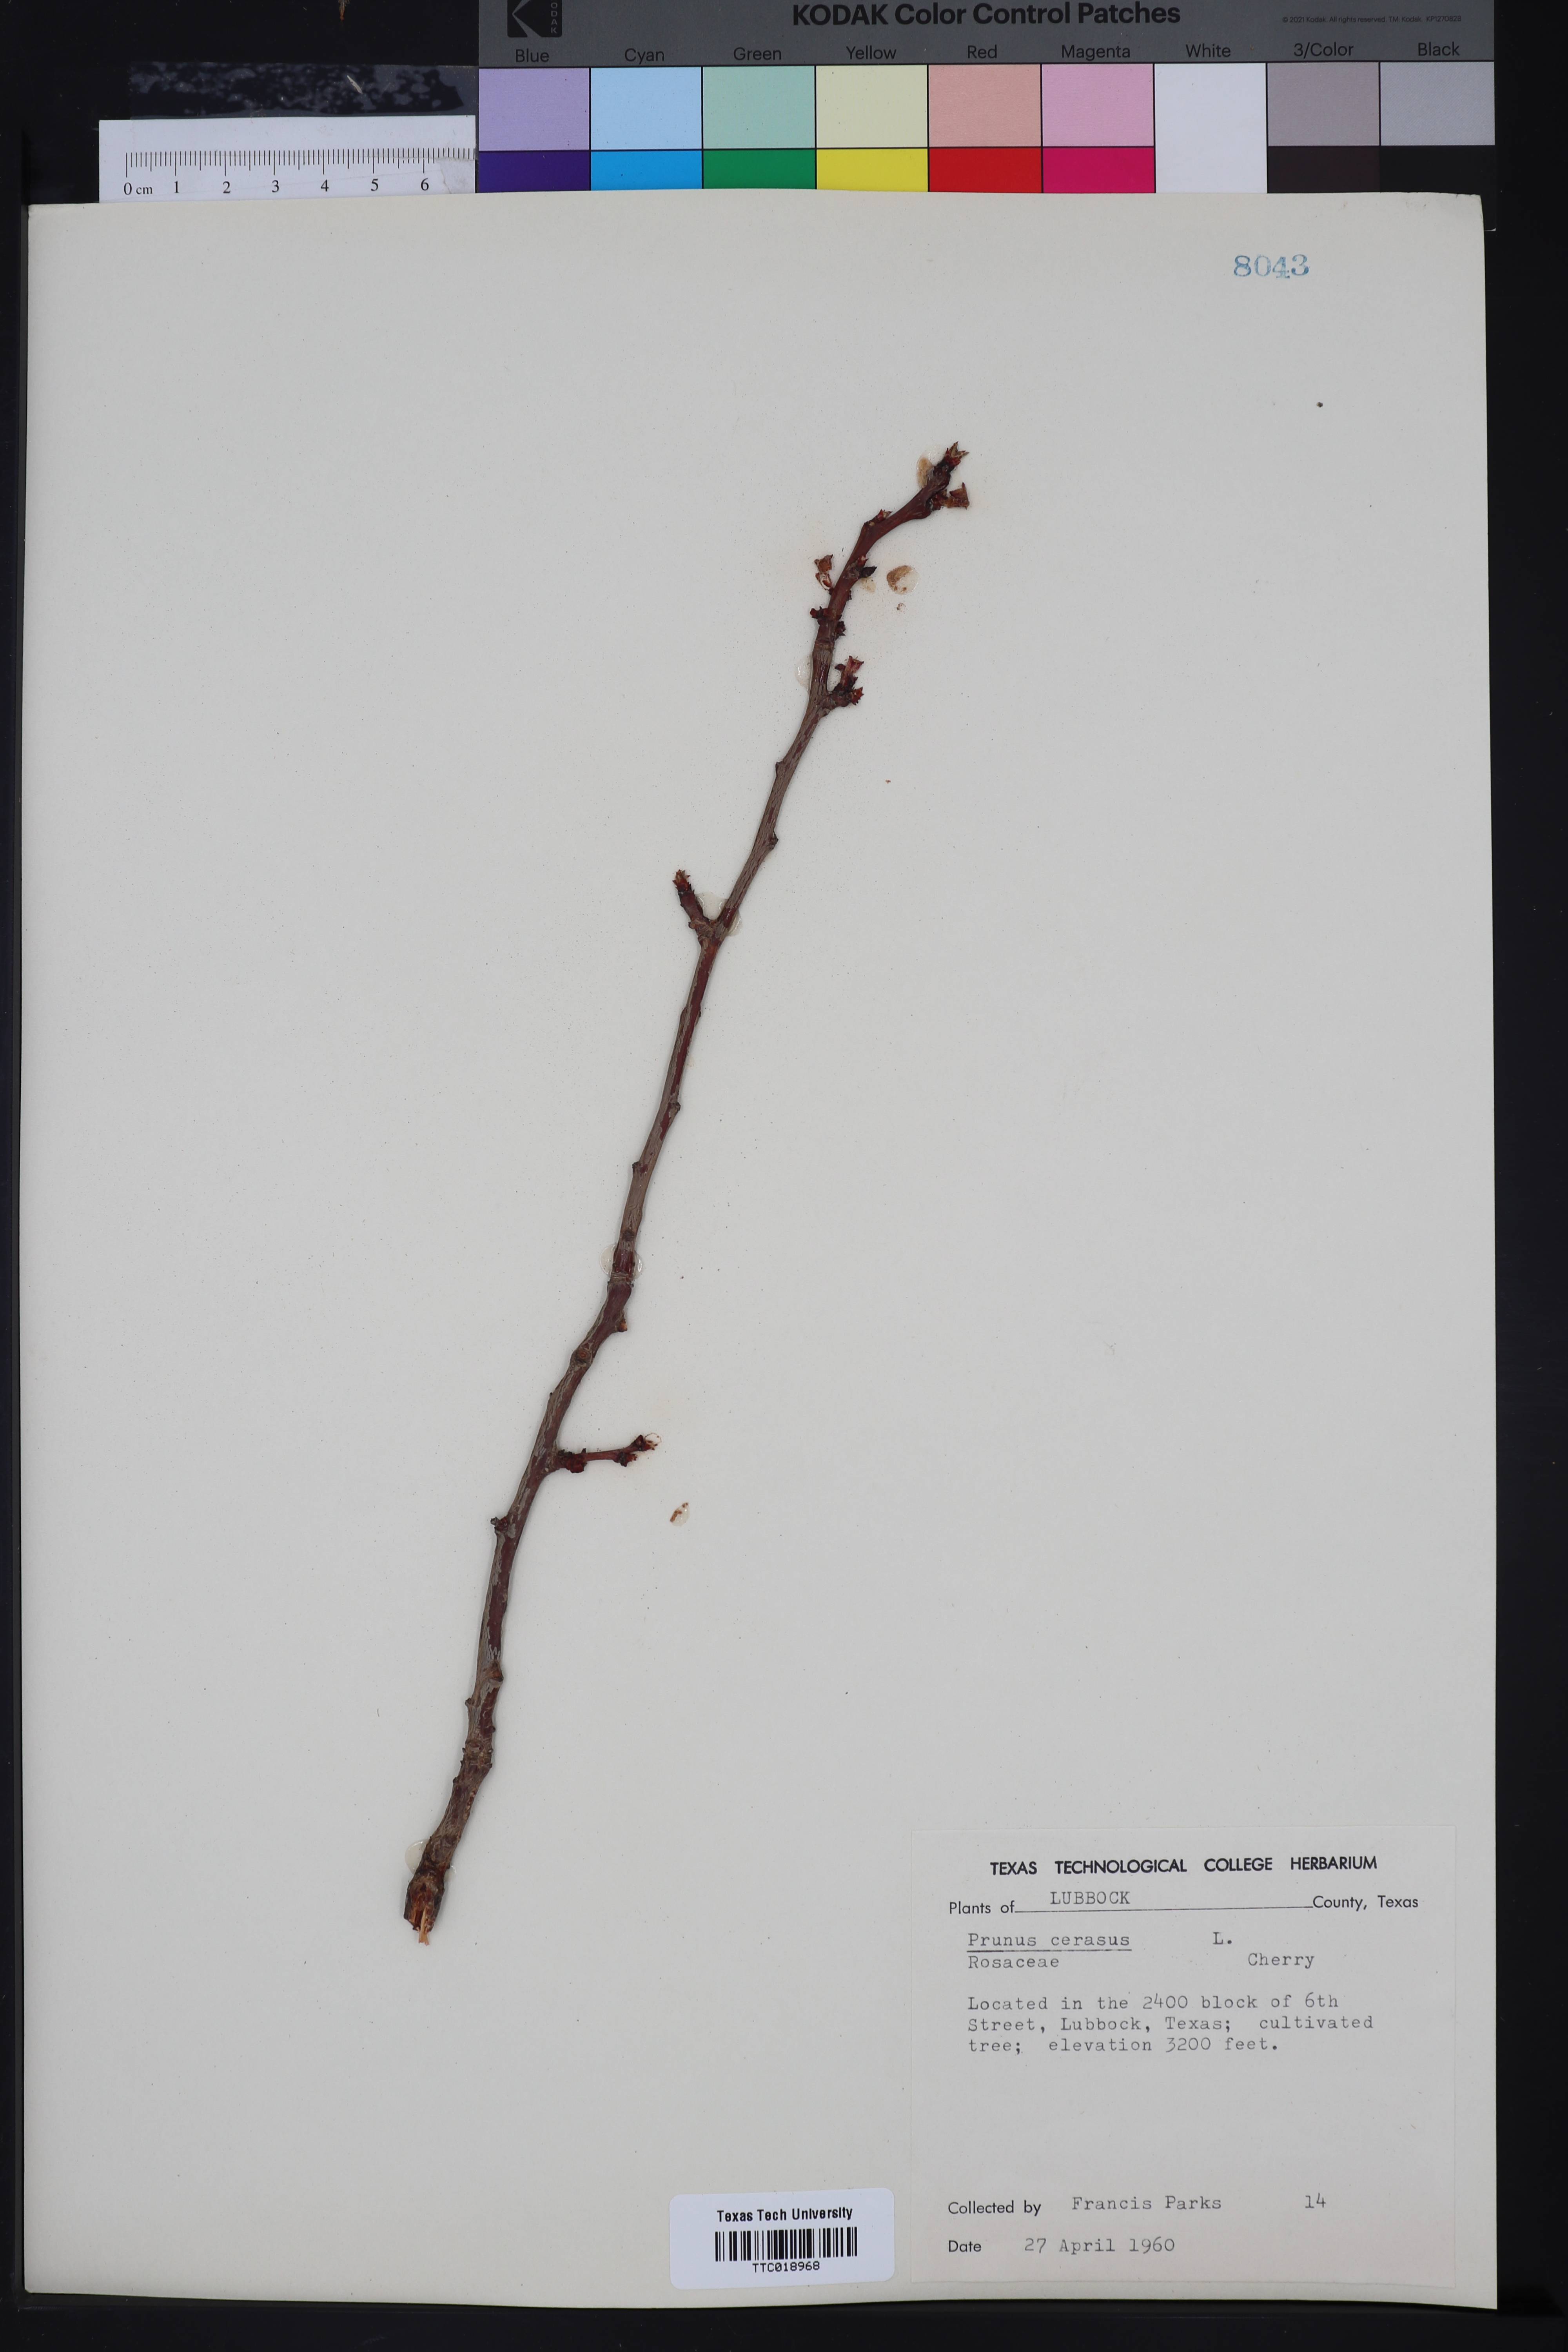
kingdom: Plantae
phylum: Tracheophyta
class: Magnoliopsida
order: Rosales
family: Rosaceae
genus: Prunus
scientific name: Prunus cerasus
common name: Morello cherry
